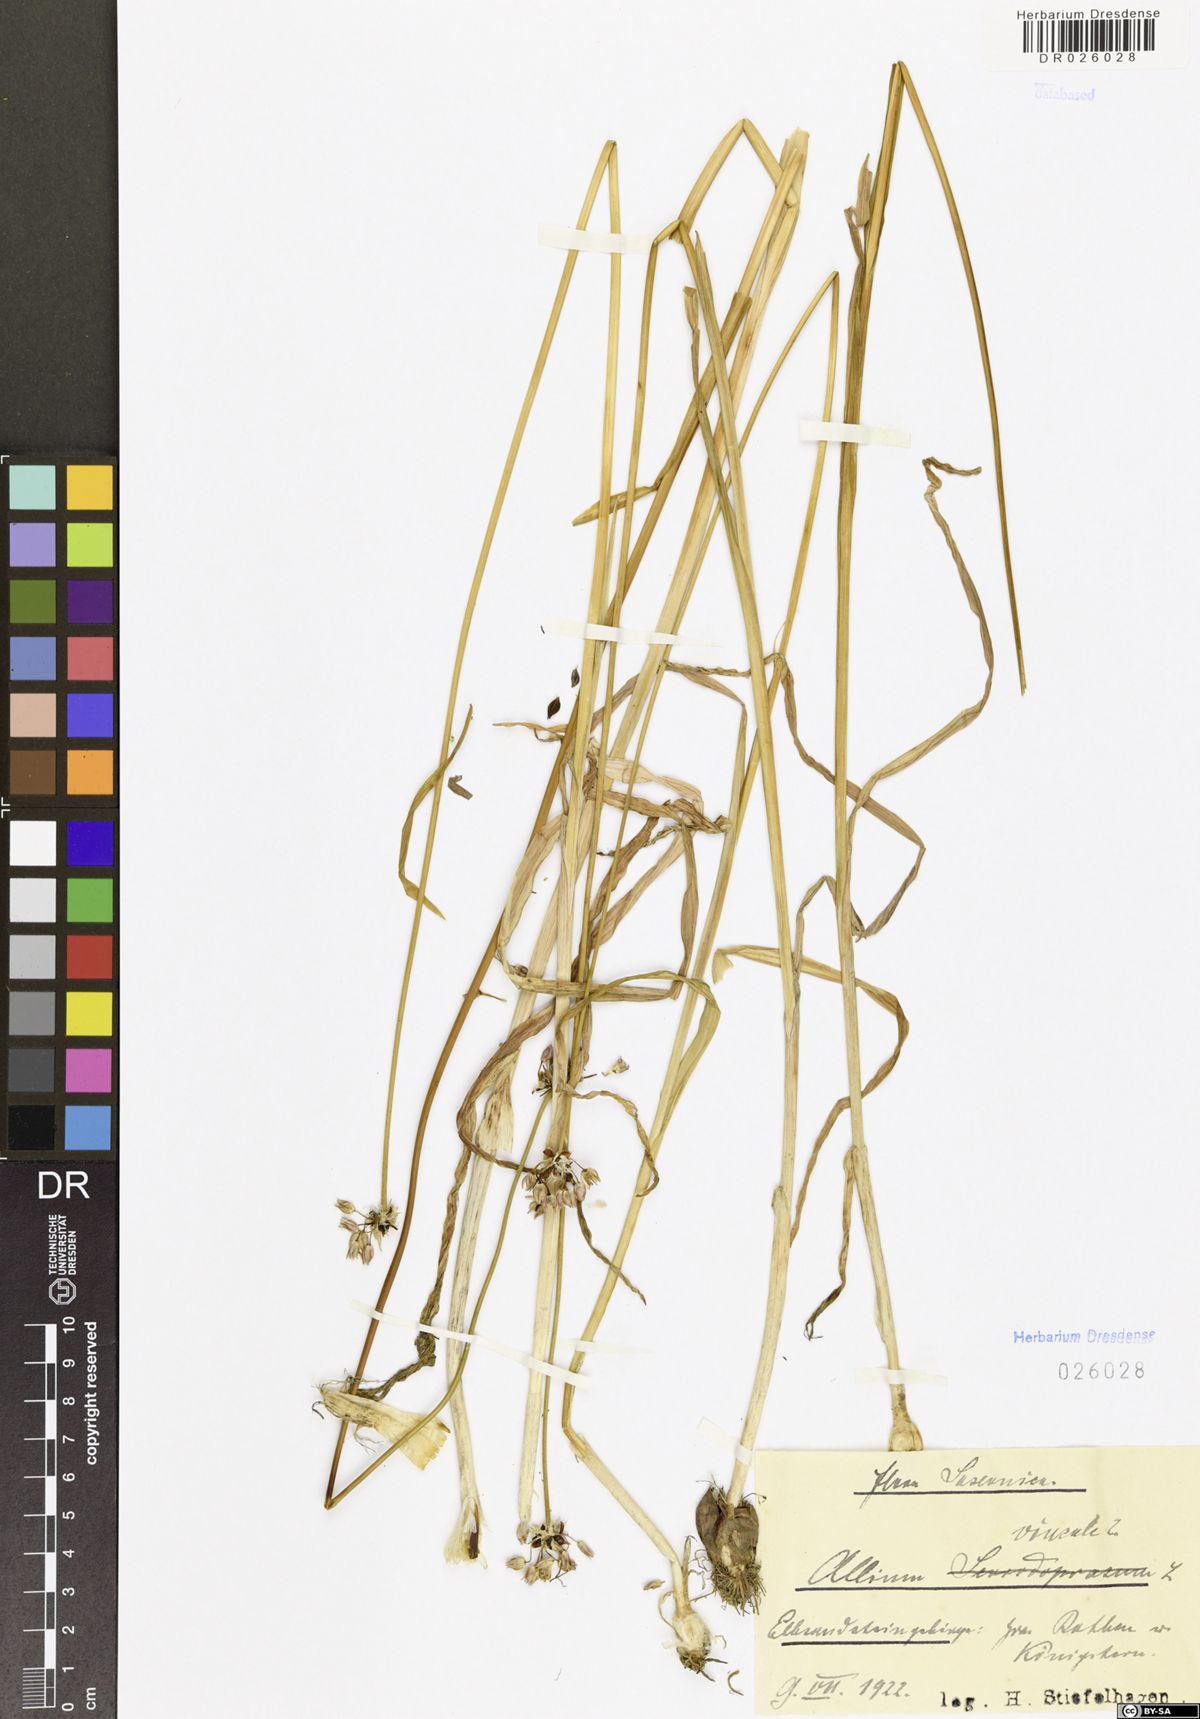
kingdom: Plantae
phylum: Tracheophyta
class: Liliopsida
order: Asparagales
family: Amaryllidaceae
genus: Allium
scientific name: Allium vineale
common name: Crow garlic
